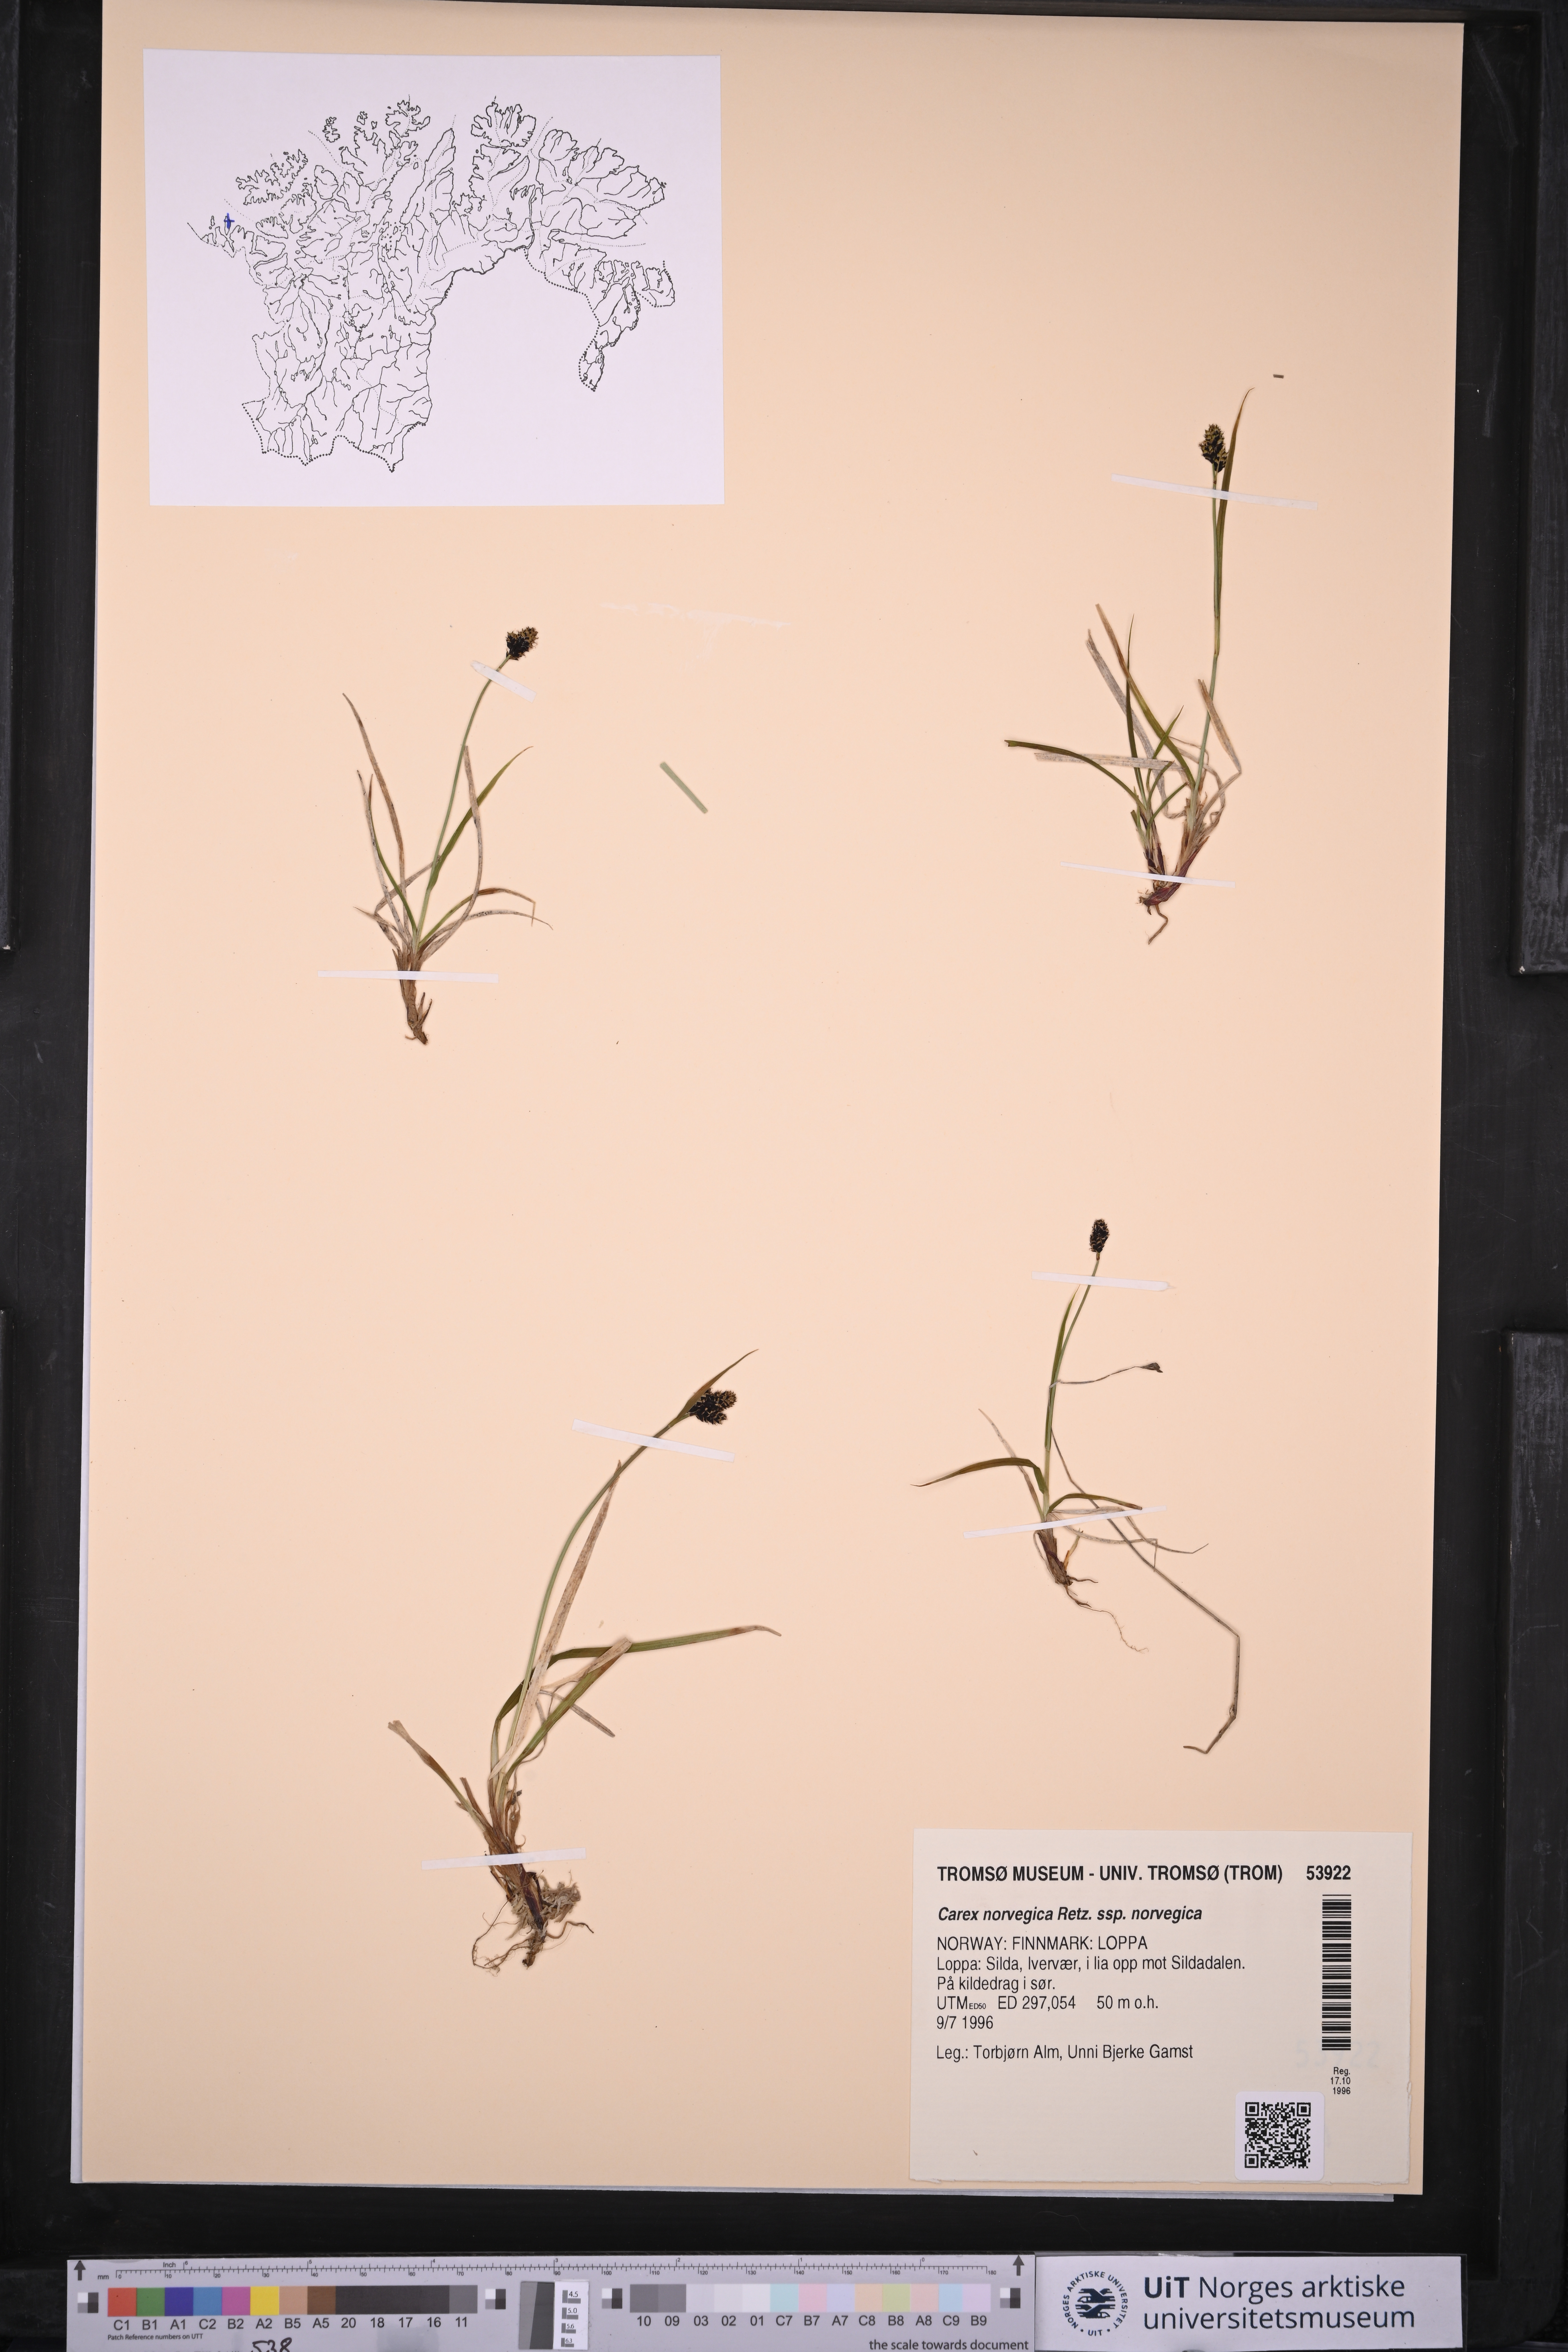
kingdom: Plantae
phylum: Tracheophyta
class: Liliopsida
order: Poales
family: Cyperaceae
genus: Carex
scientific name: Carex norvegica
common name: Close-headed alpine-sedge
